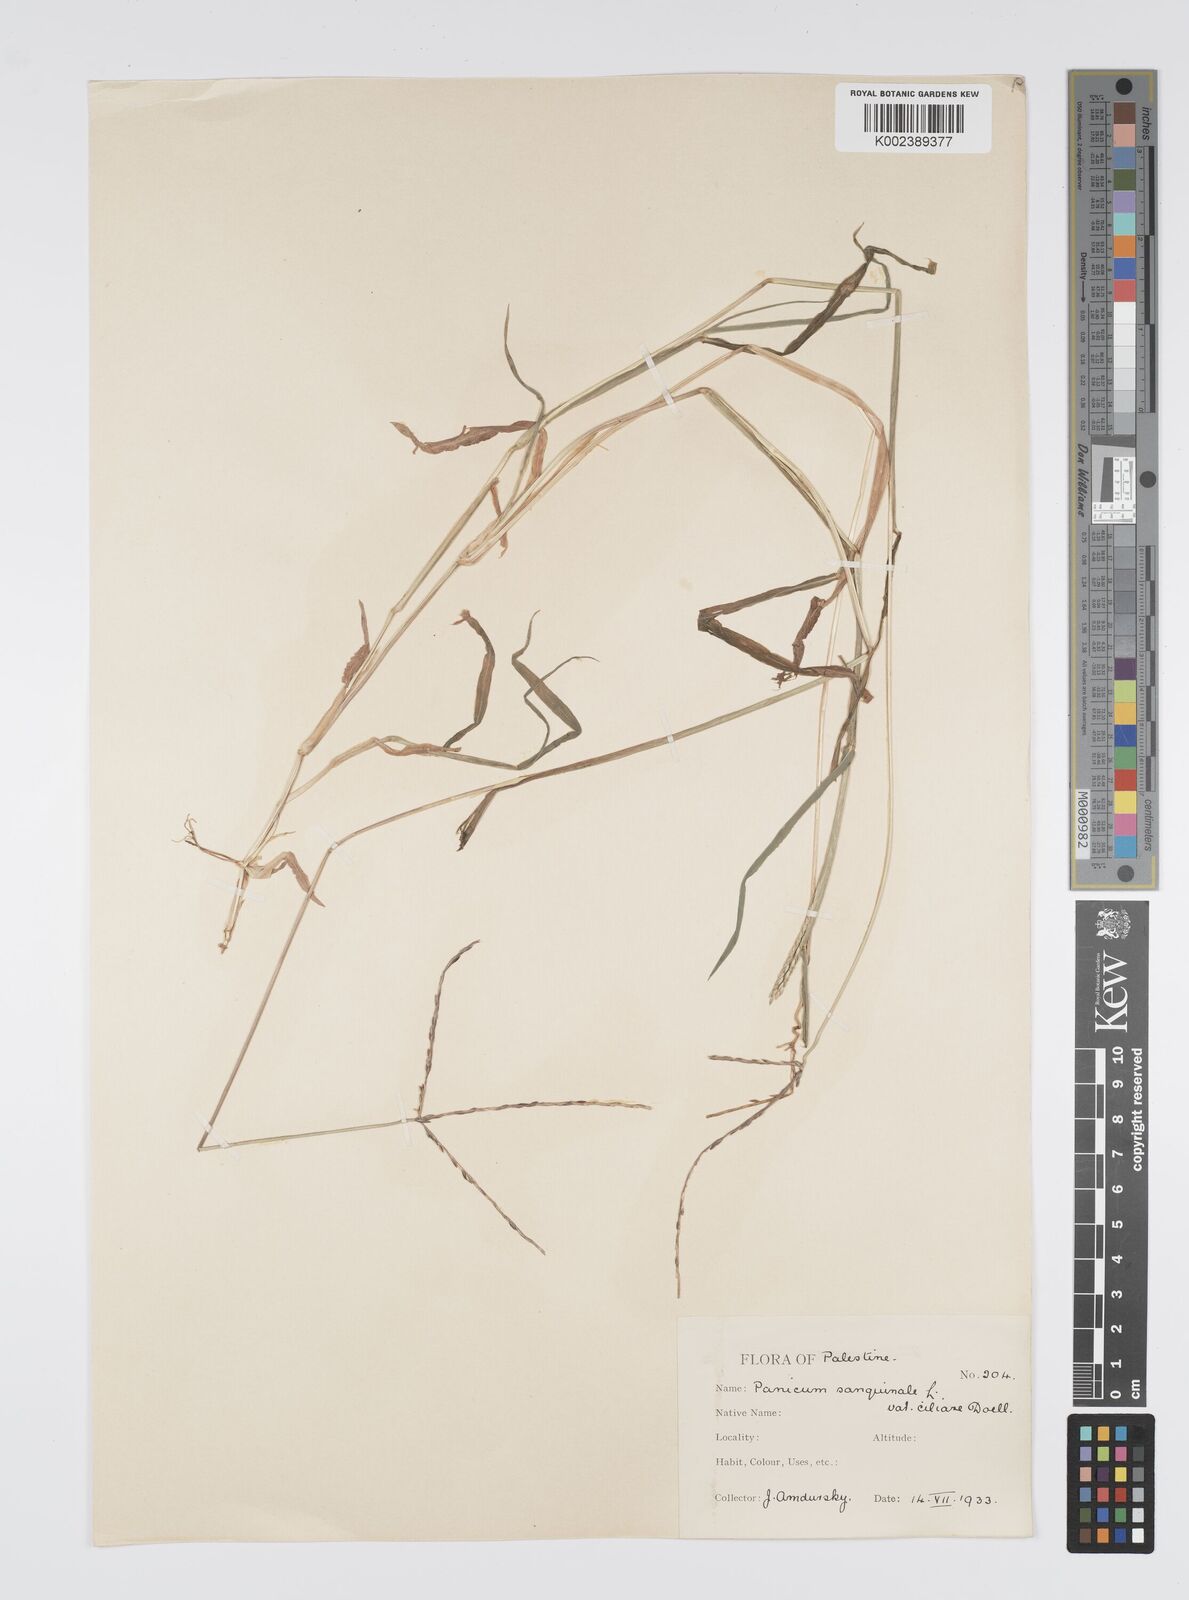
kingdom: Plantae
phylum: Tracheophyta
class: Liliopsida
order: Poales
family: Poaceae
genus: Digitaria
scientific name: Digitaria sanguinalis
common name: Hairy crabgrass
